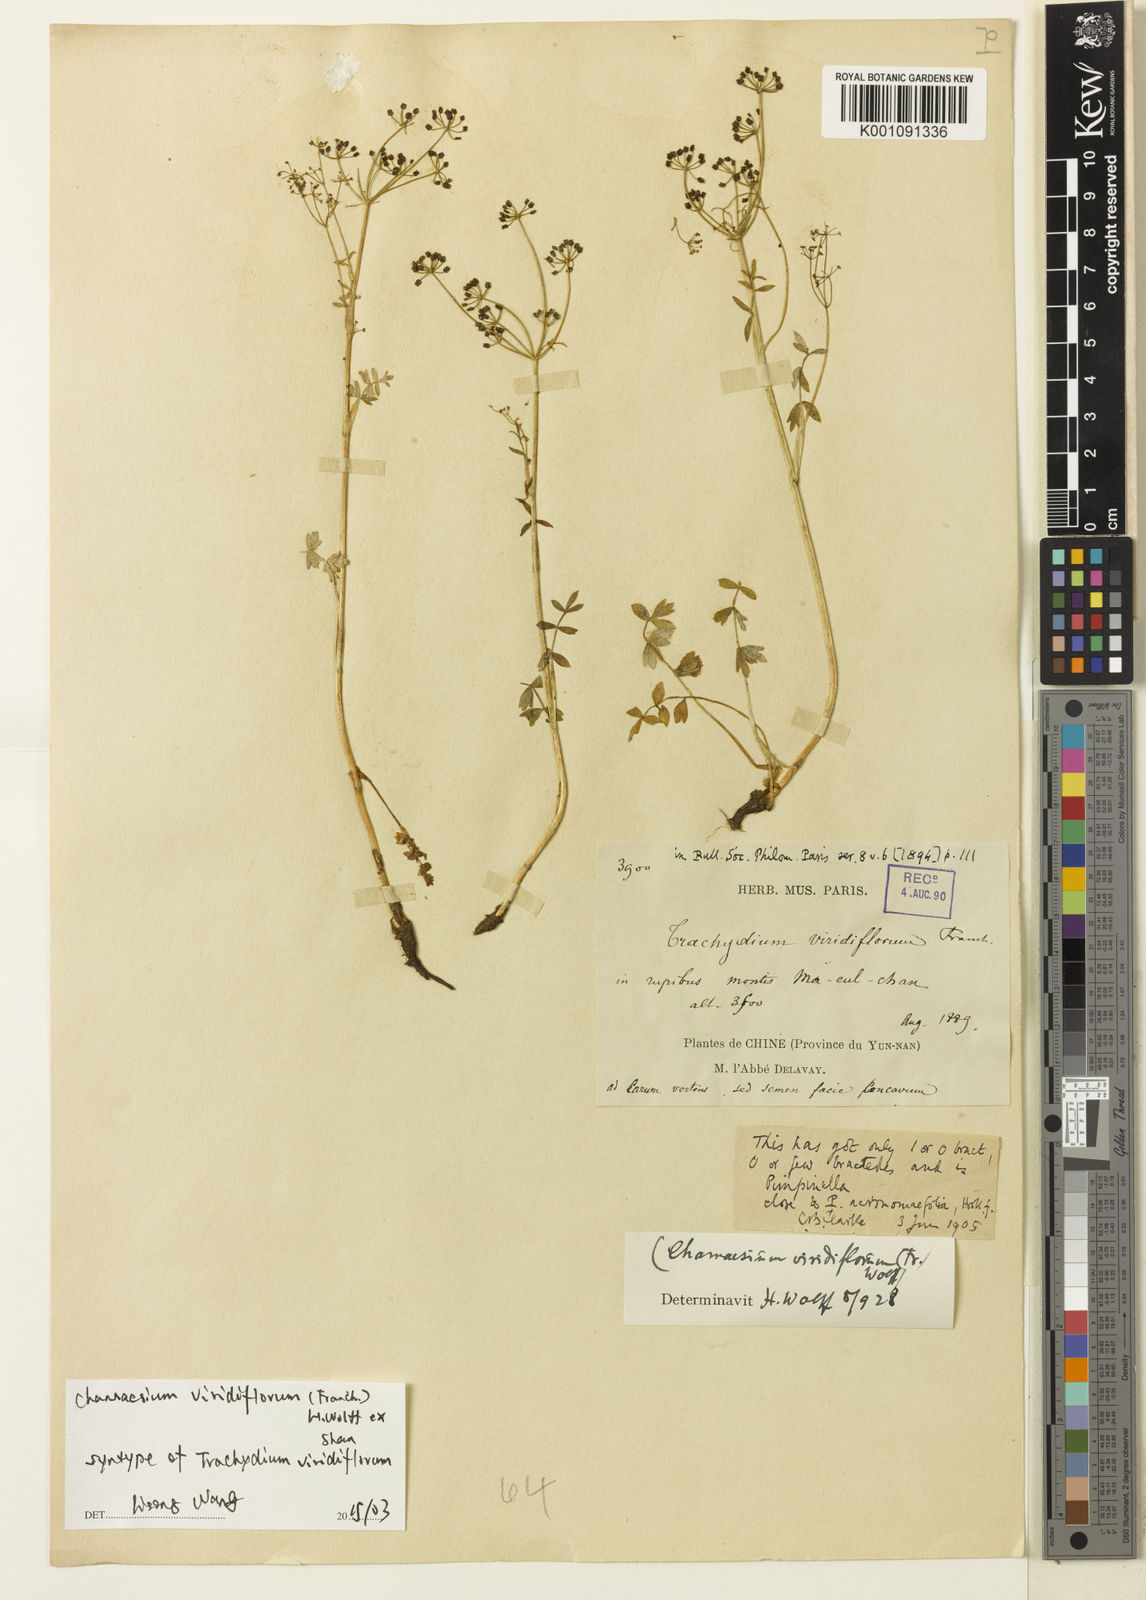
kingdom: Plantae
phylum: Tracheophyta
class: Magnoliopsida
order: Apiales
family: Apiaceae
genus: Chamaesium
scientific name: Chamaesium viridiflorum
